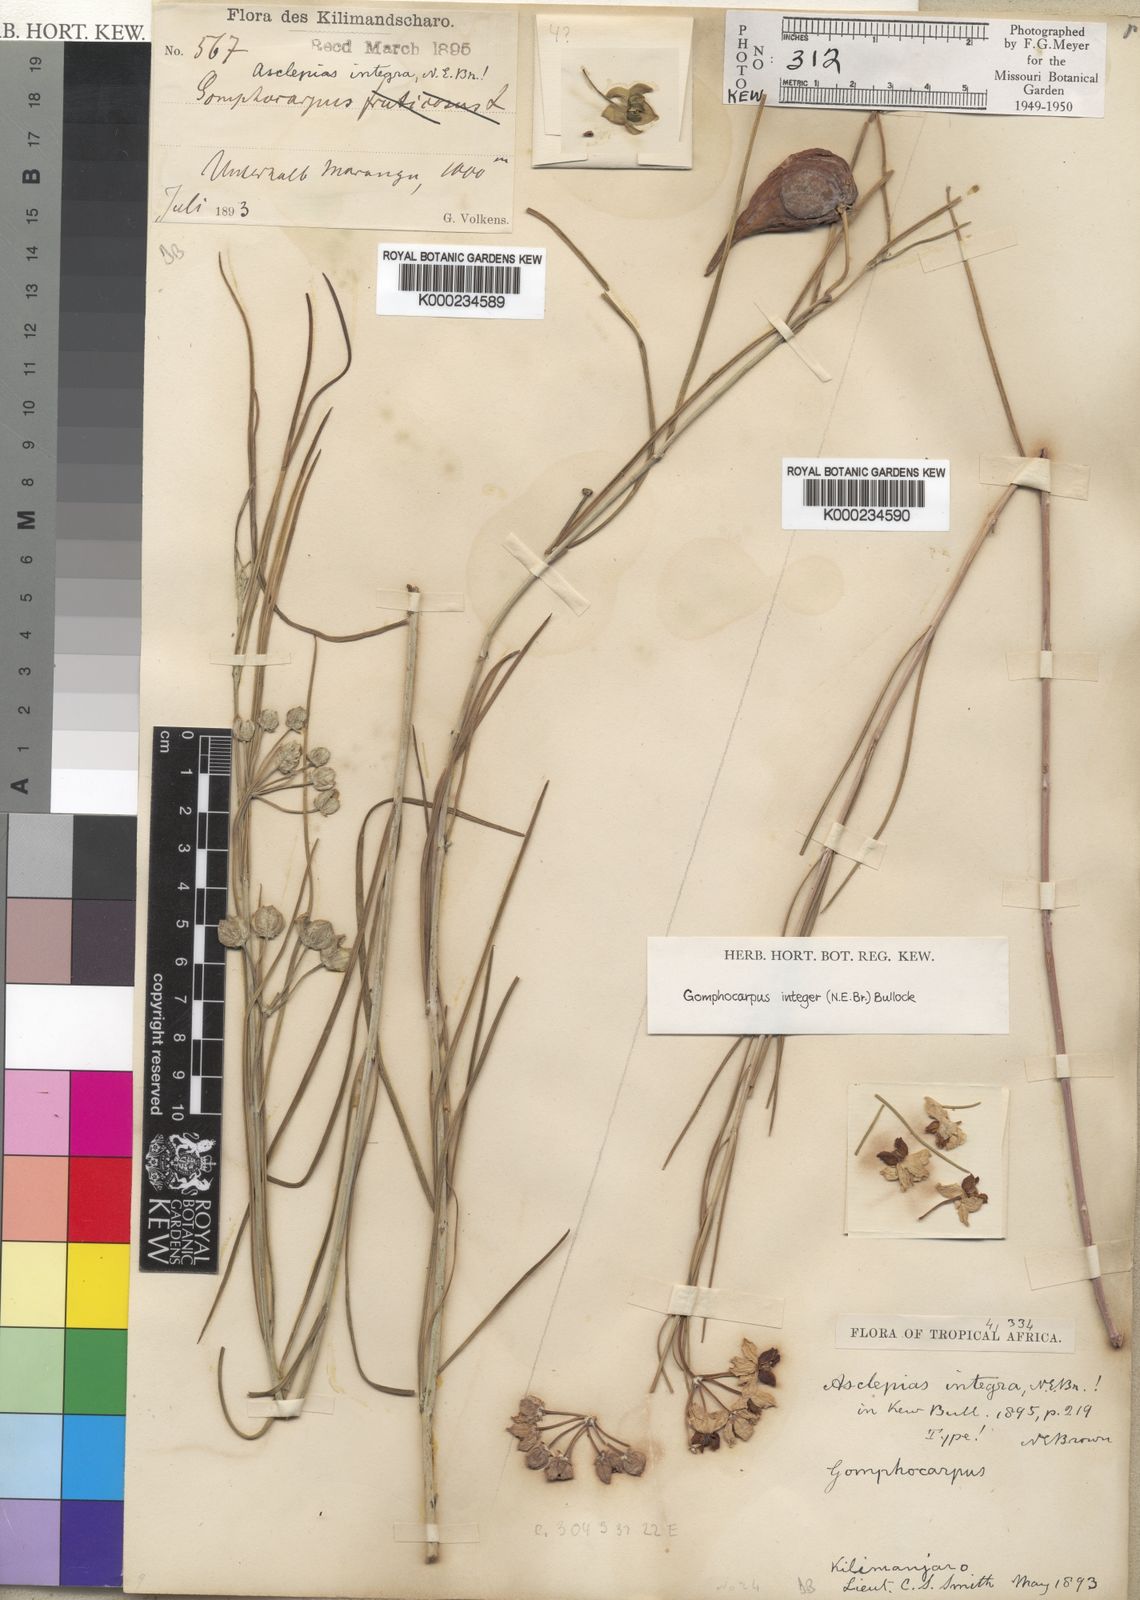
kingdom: Plantae
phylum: Tracheophyta
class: Magnoliopsida
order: Gentianales
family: Apocynaceae
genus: Gomphocarpus
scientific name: Gomphocarpus integer
